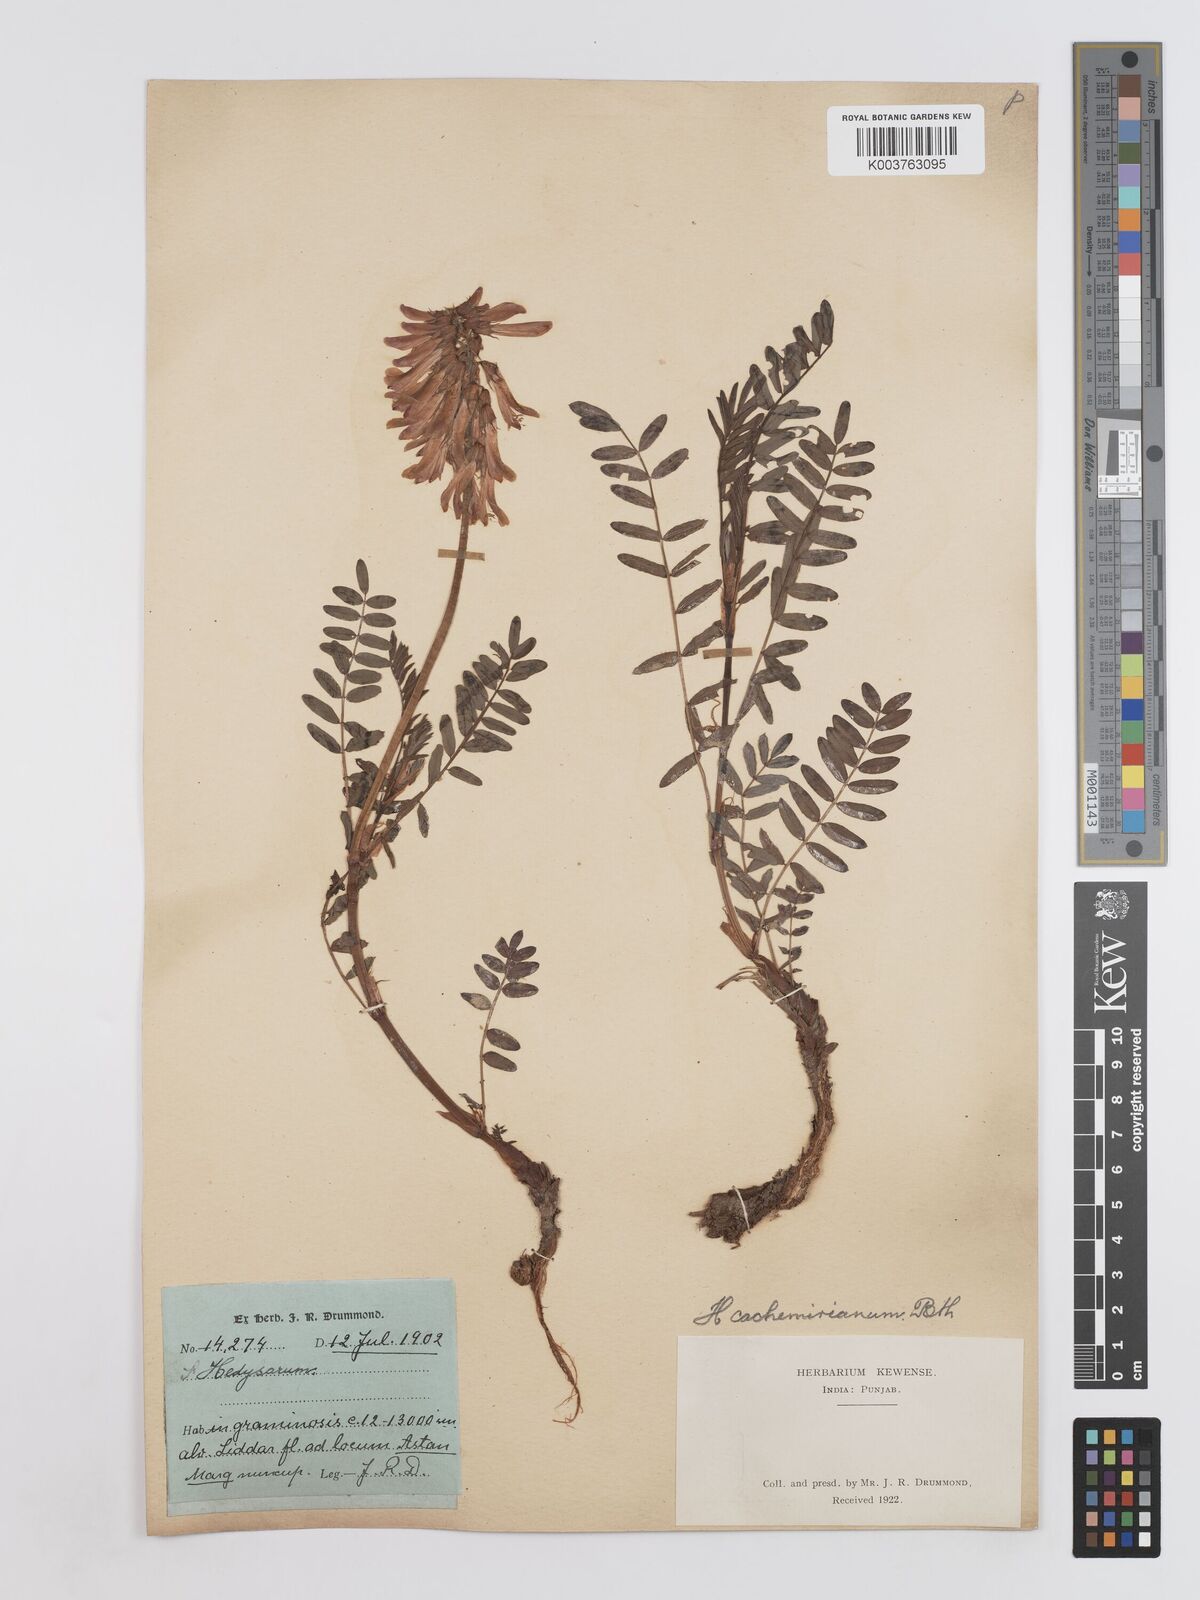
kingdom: Plantae
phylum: Tracheophyta
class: Magnoliopsida
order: Fabales
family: Fabaceae
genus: Hedysarum
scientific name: Hedysarum cachemirianum
